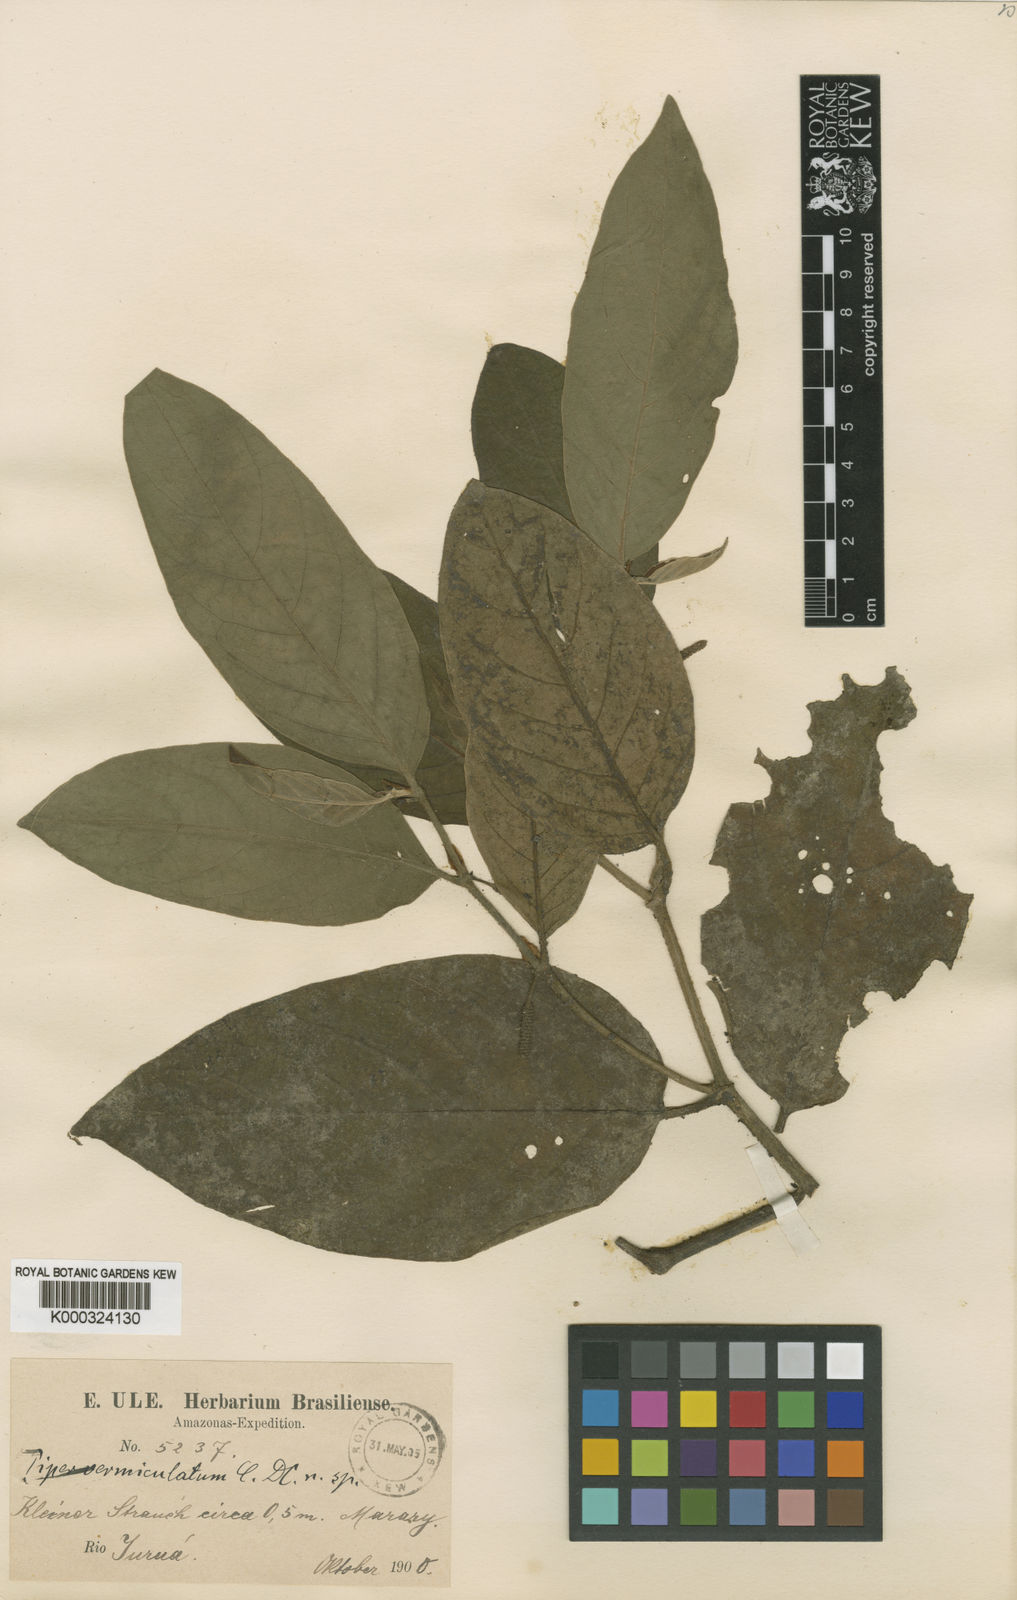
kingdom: Plantae
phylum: Tracheophyta
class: Magnoliopsida
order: Piperales
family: Piperaceae
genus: Piper
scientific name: Piper vermiculatum
